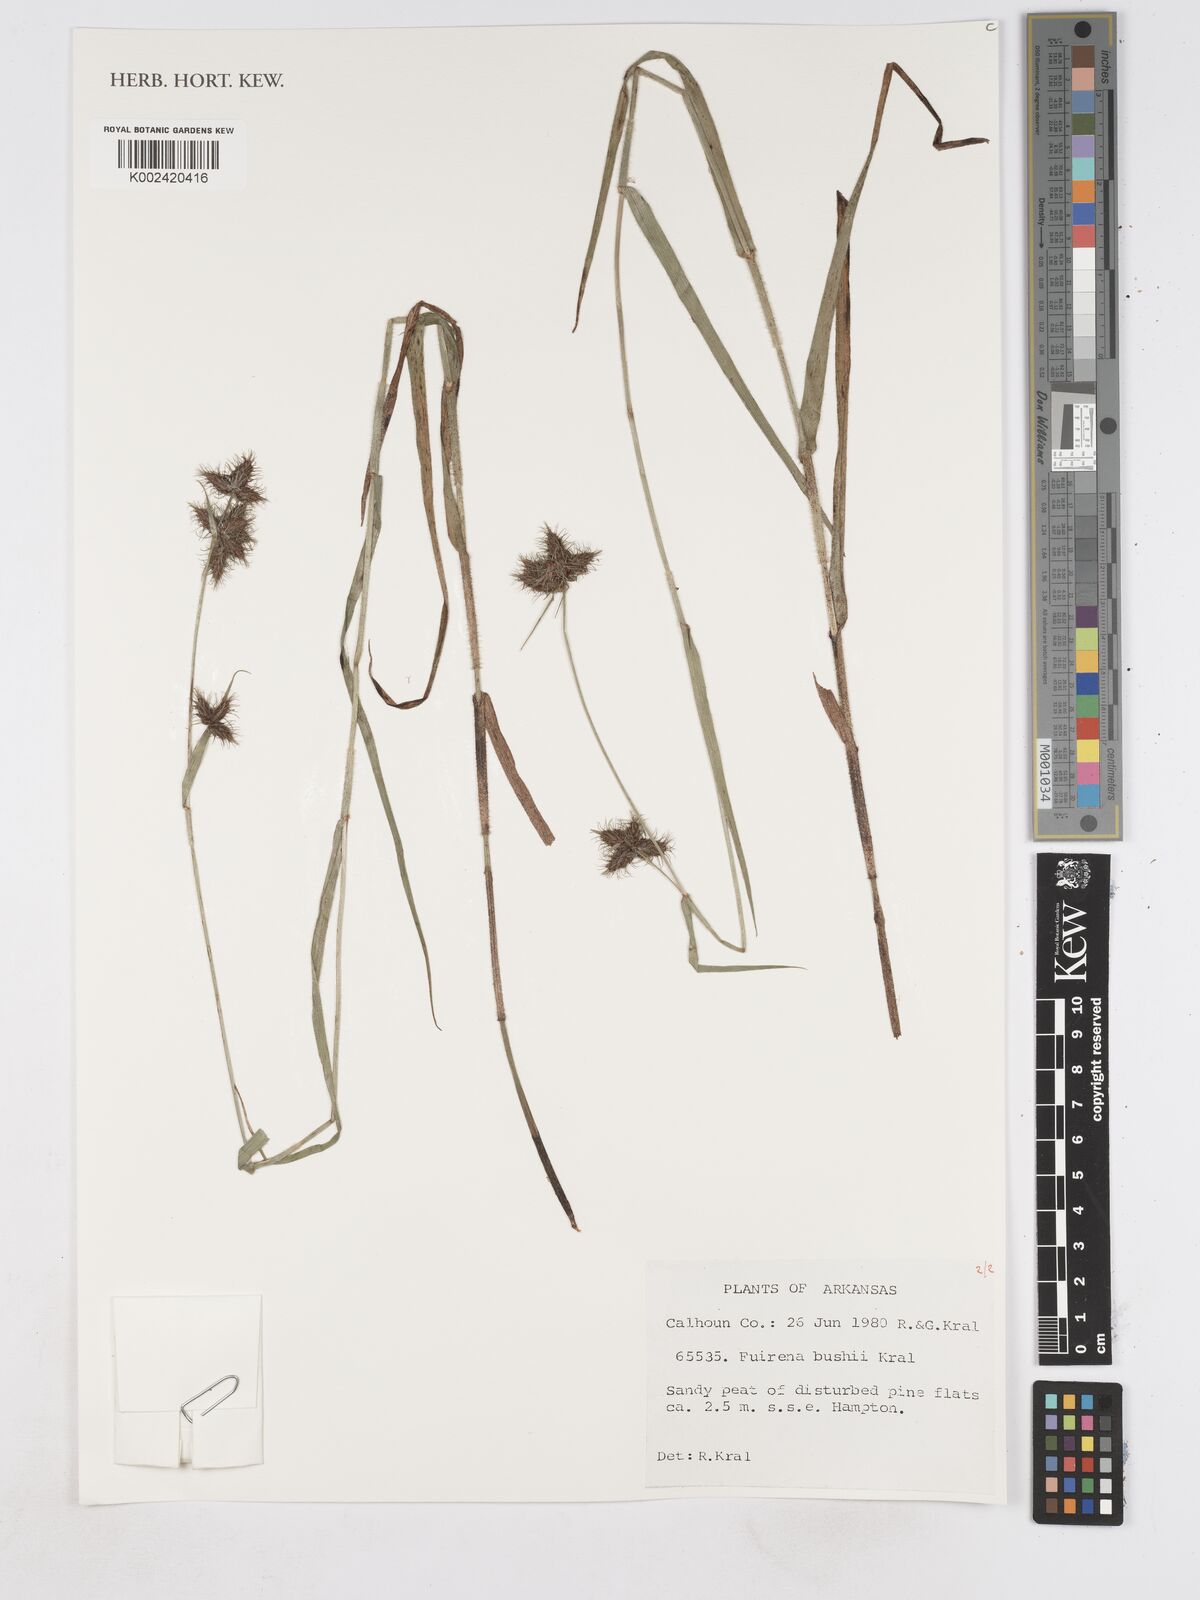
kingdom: Plantae
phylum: Tracheophyta
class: Liliopsida
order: Poales
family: Cyperaceae
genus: Fuirena
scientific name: Fuirena bushii
